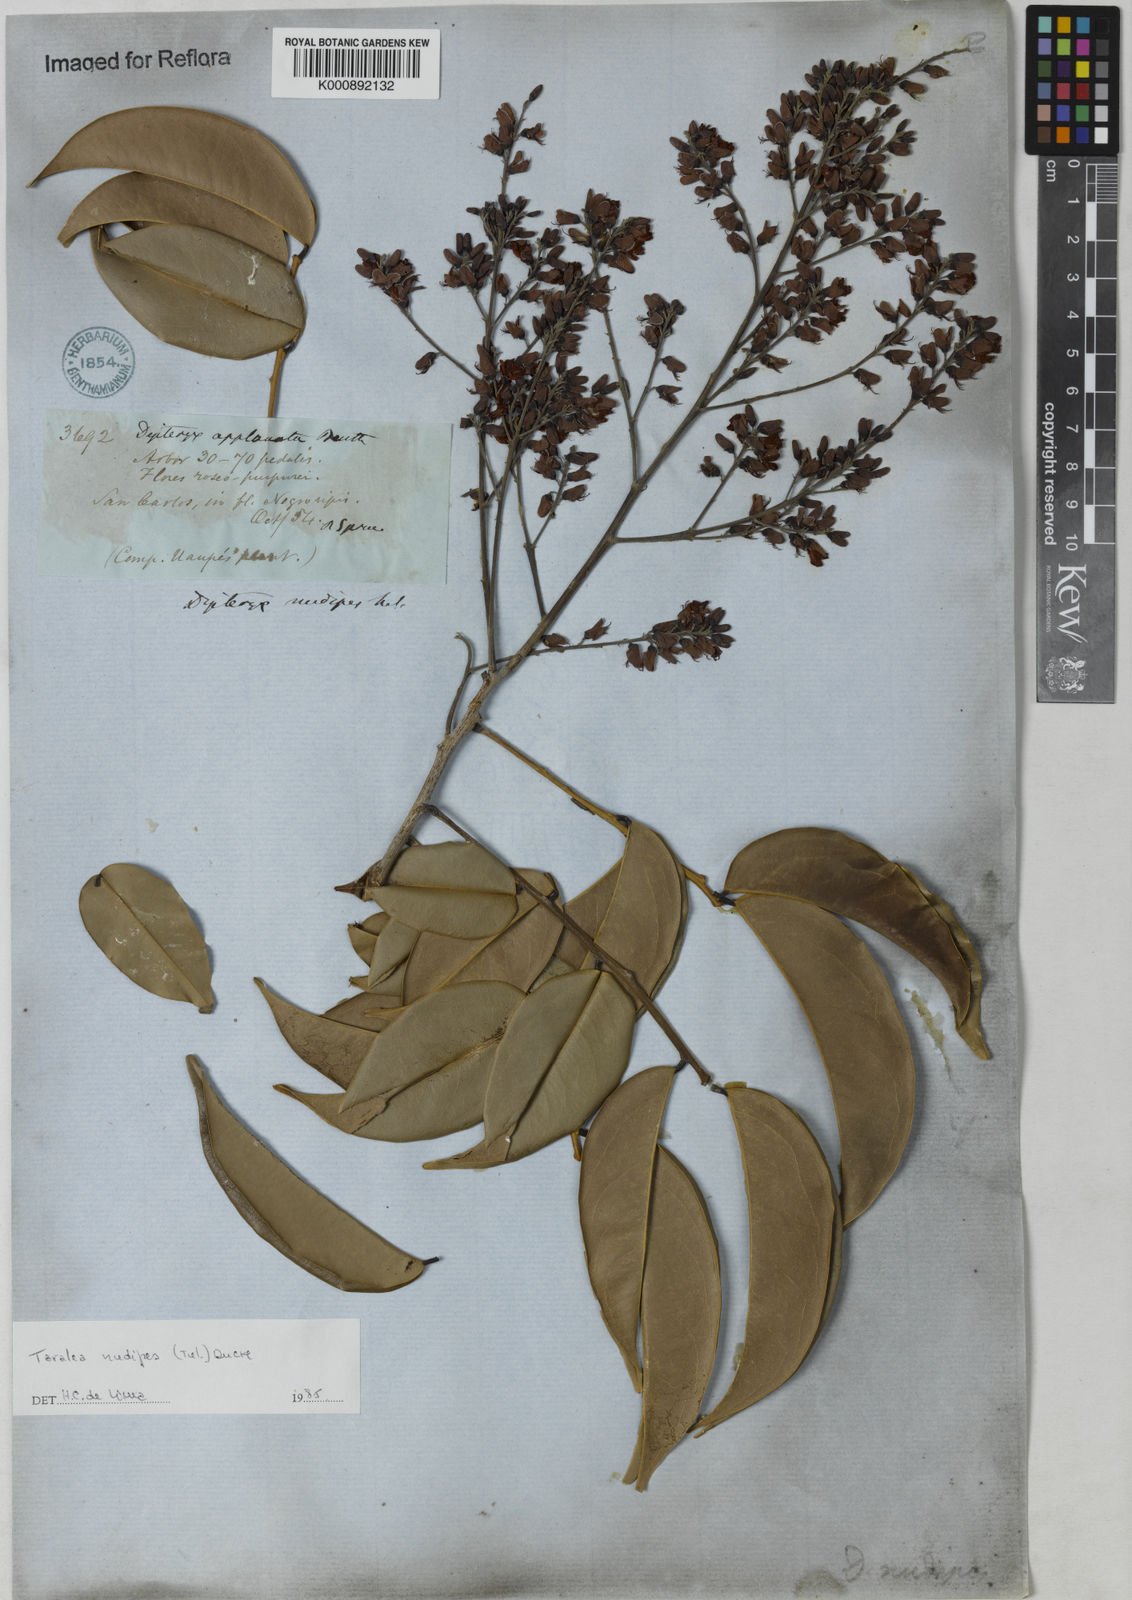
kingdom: Plantae
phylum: Tracheophyta
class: Magnoliopsida
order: Fabales
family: Fabaceae
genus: Taralea
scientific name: Taralea nudipes
